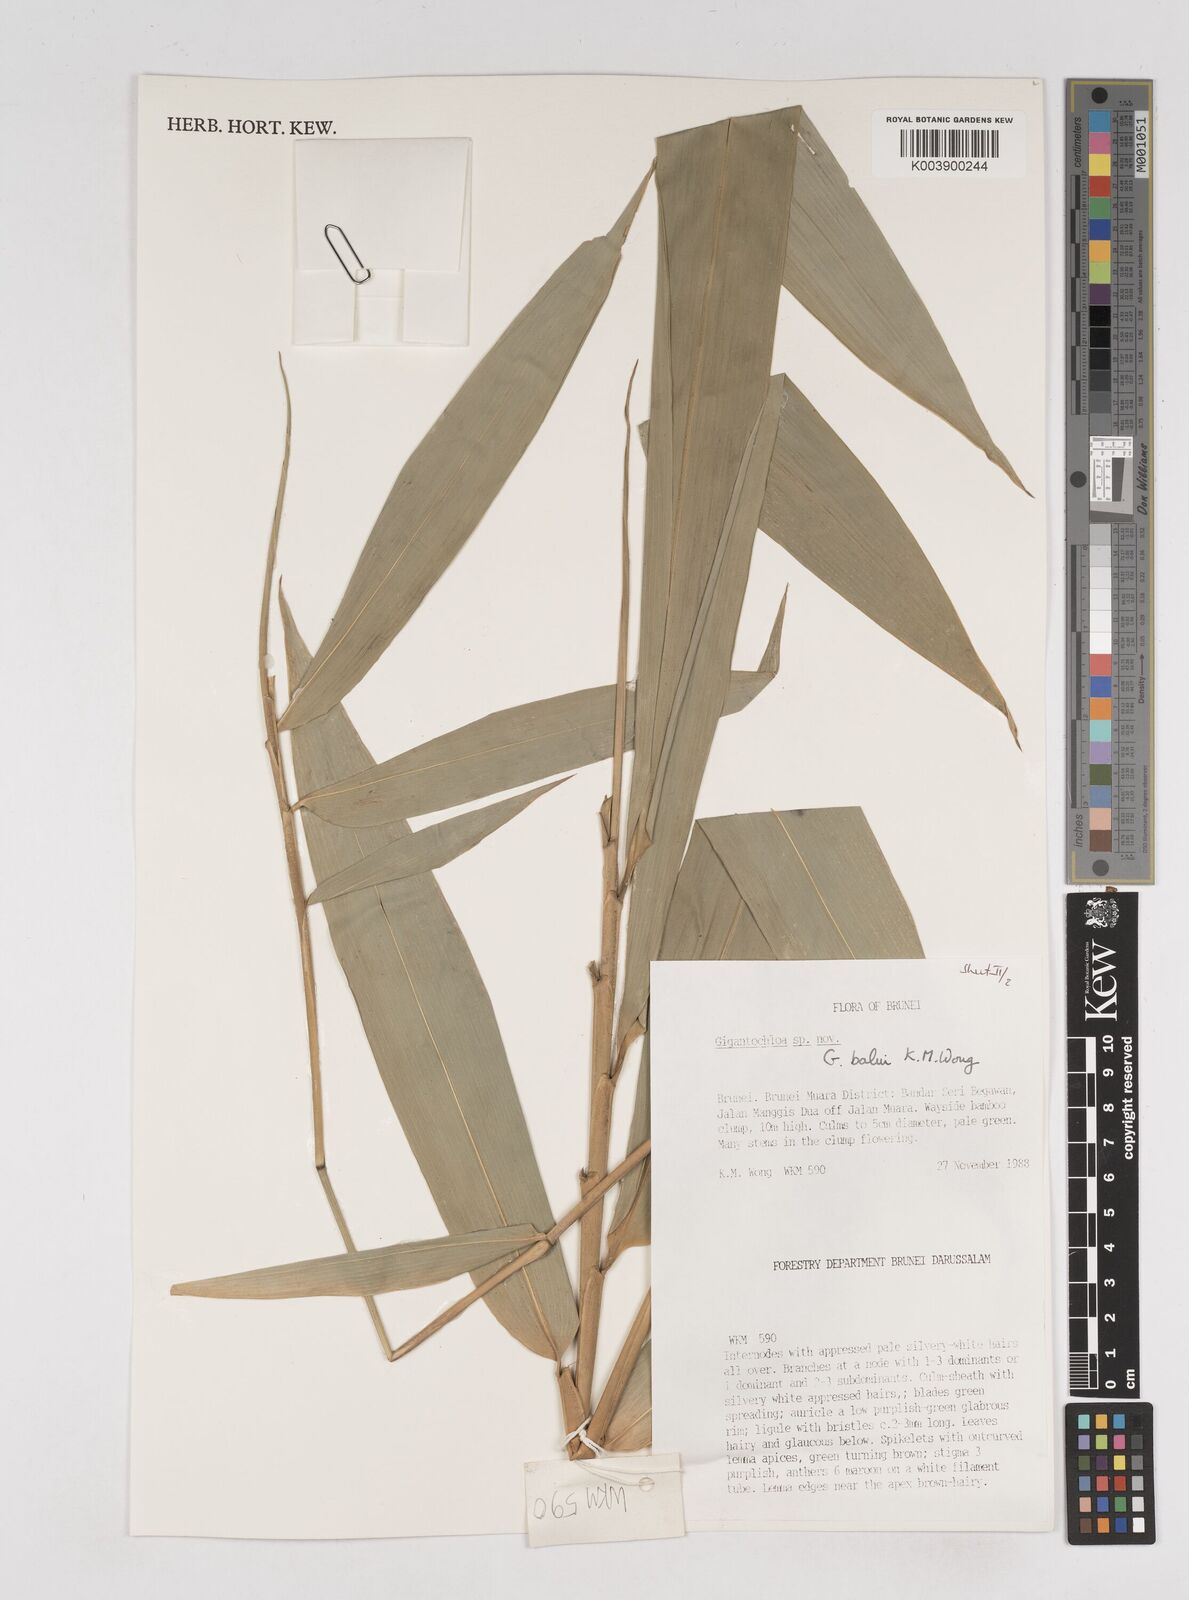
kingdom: Plantae
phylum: Tracheophyta
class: Liliopsida
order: Poales
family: Poaceae
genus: Gigantochloa
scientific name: Gigantochloa balui
